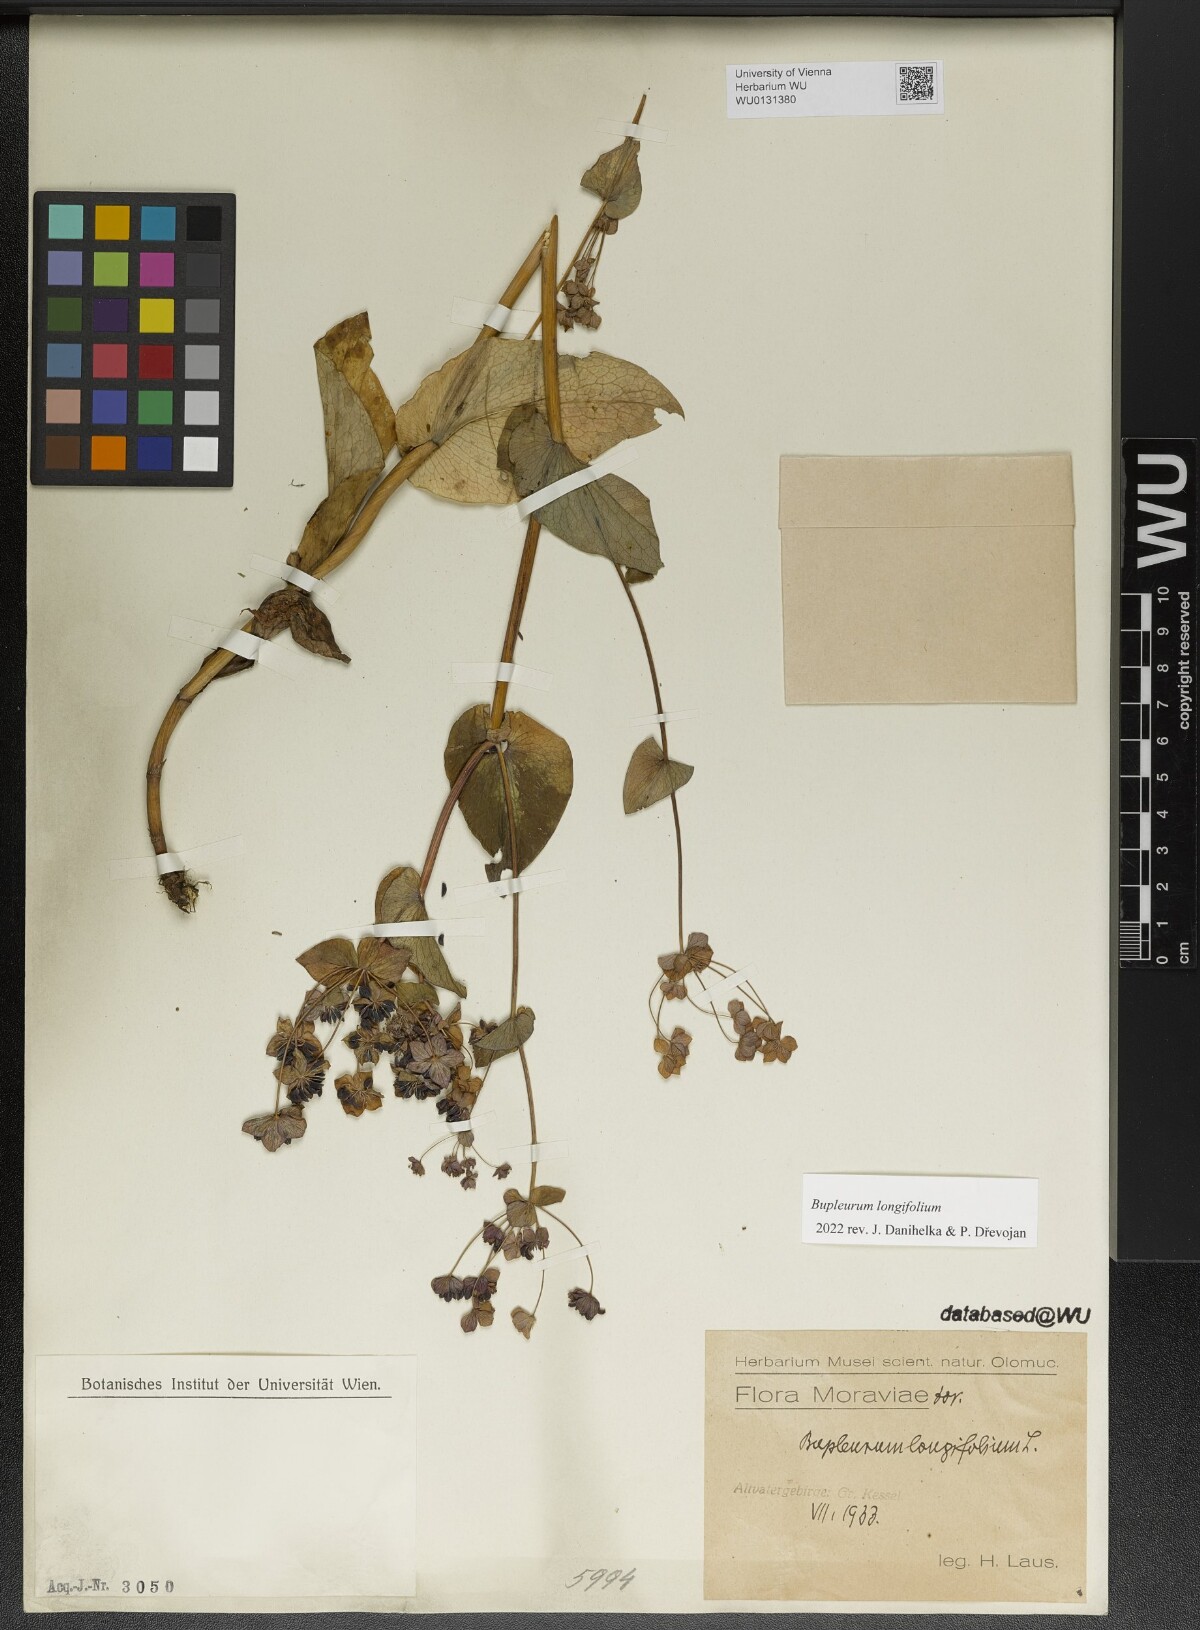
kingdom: Plantae
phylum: Tracheophyta
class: Magnoliopsida
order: Apiales
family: Apiaceae
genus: Bupleurum
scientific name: Bupleurum longifolium
